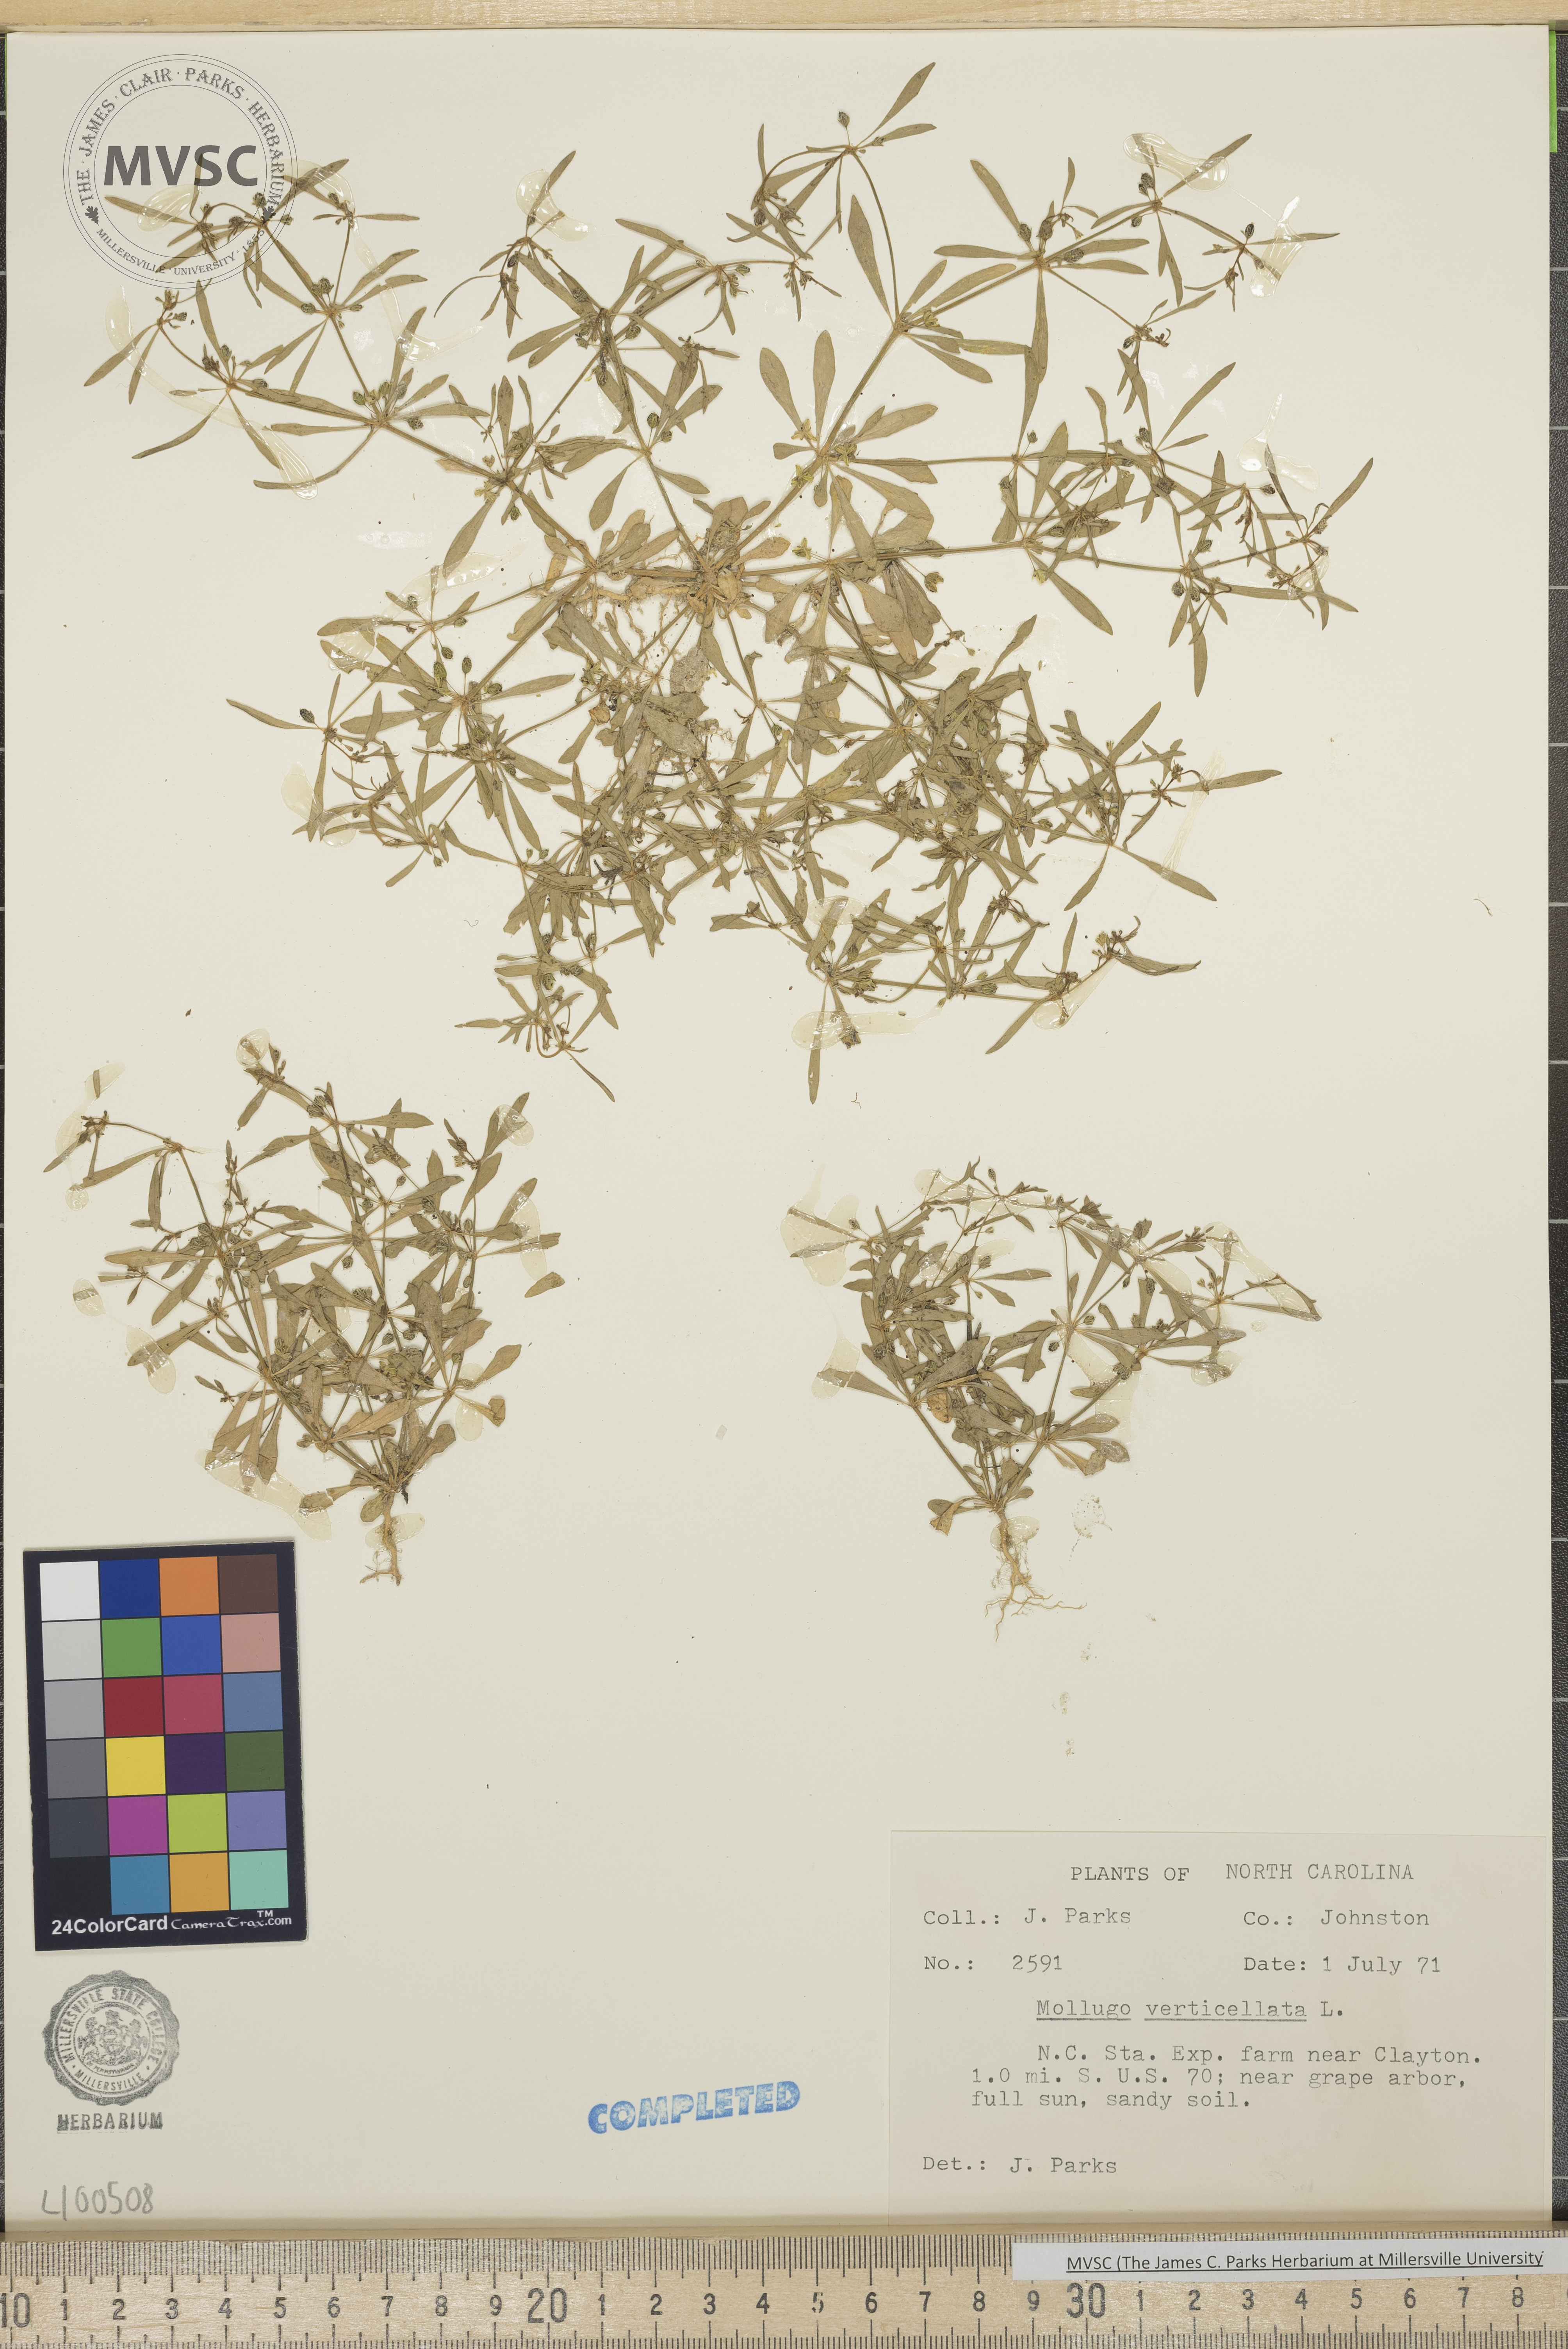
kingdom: Plantae
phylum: Tracheophyta
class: Magnoliopsida
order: Caryophyllales
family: Molluginaceae
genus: Mollugo
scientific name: Mollugo verticillata
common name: Green carpetweed
